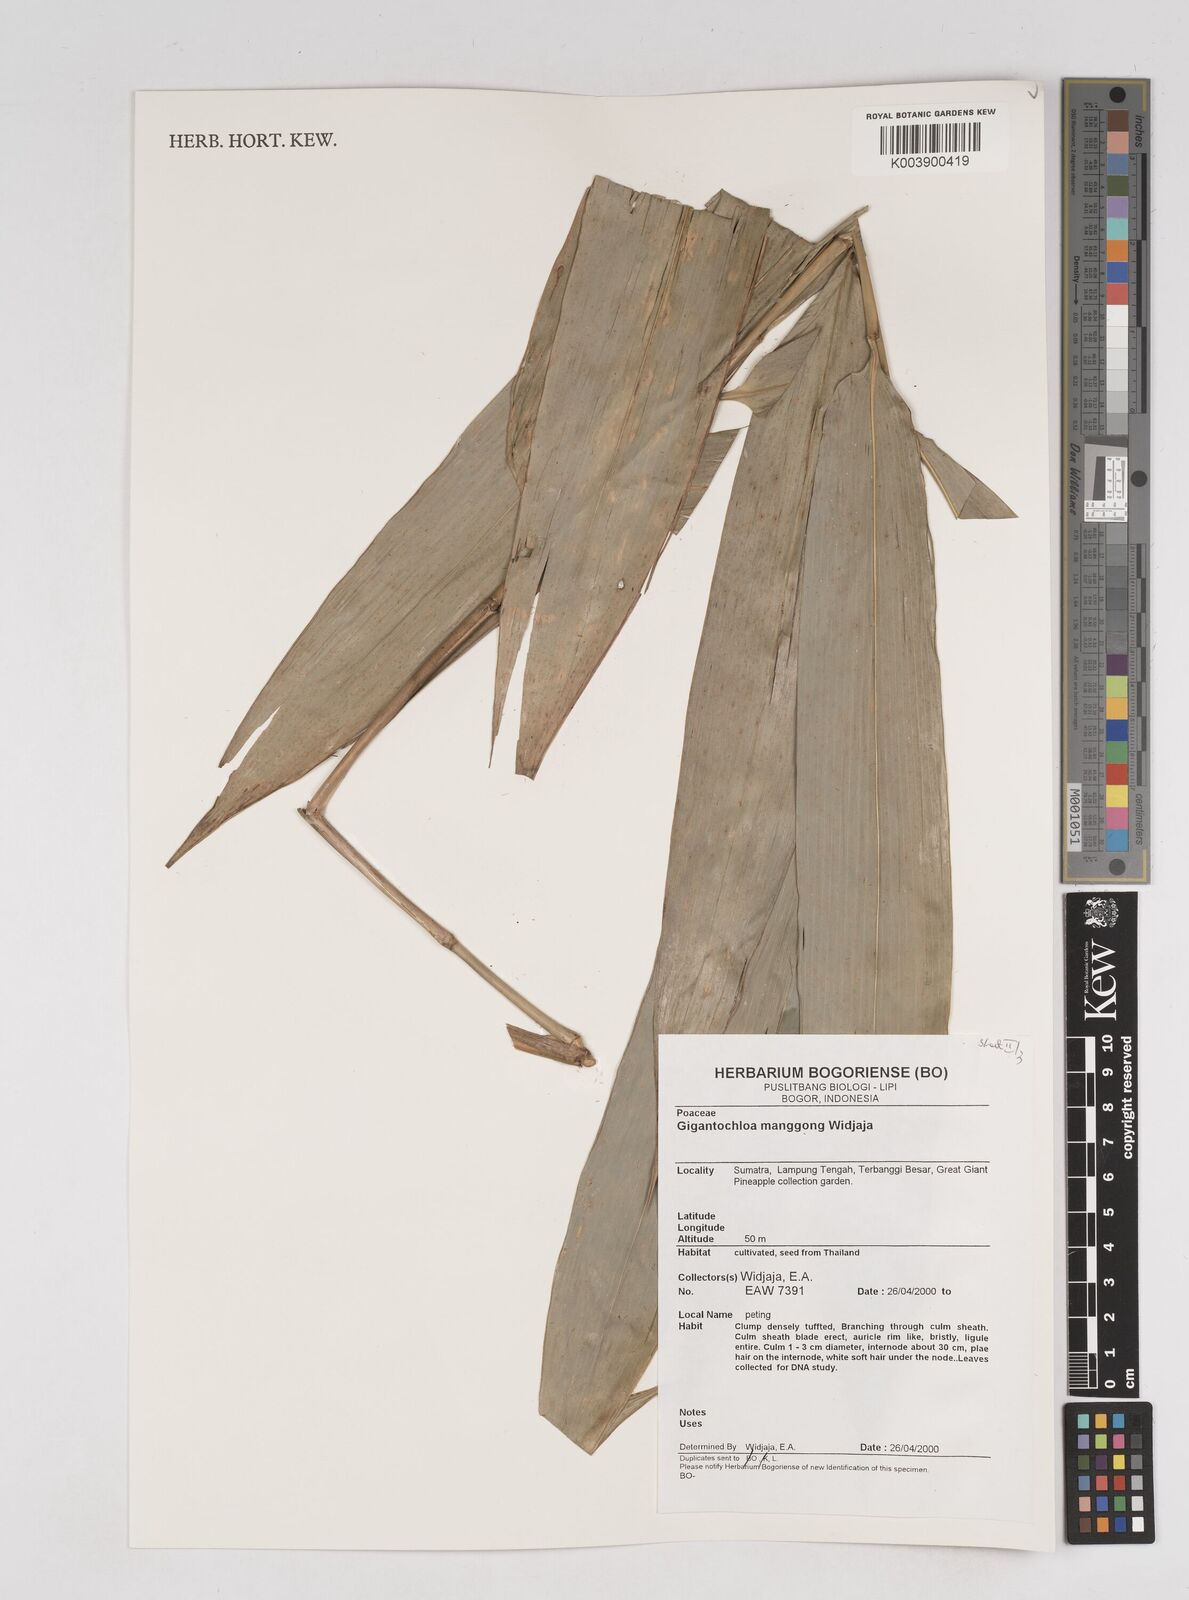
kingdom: Plantae
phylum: Tracheophyta
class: Liliopsida
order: Poales
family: Poaceae
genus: Gigantochloa
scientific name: Gigantochloa manggong
